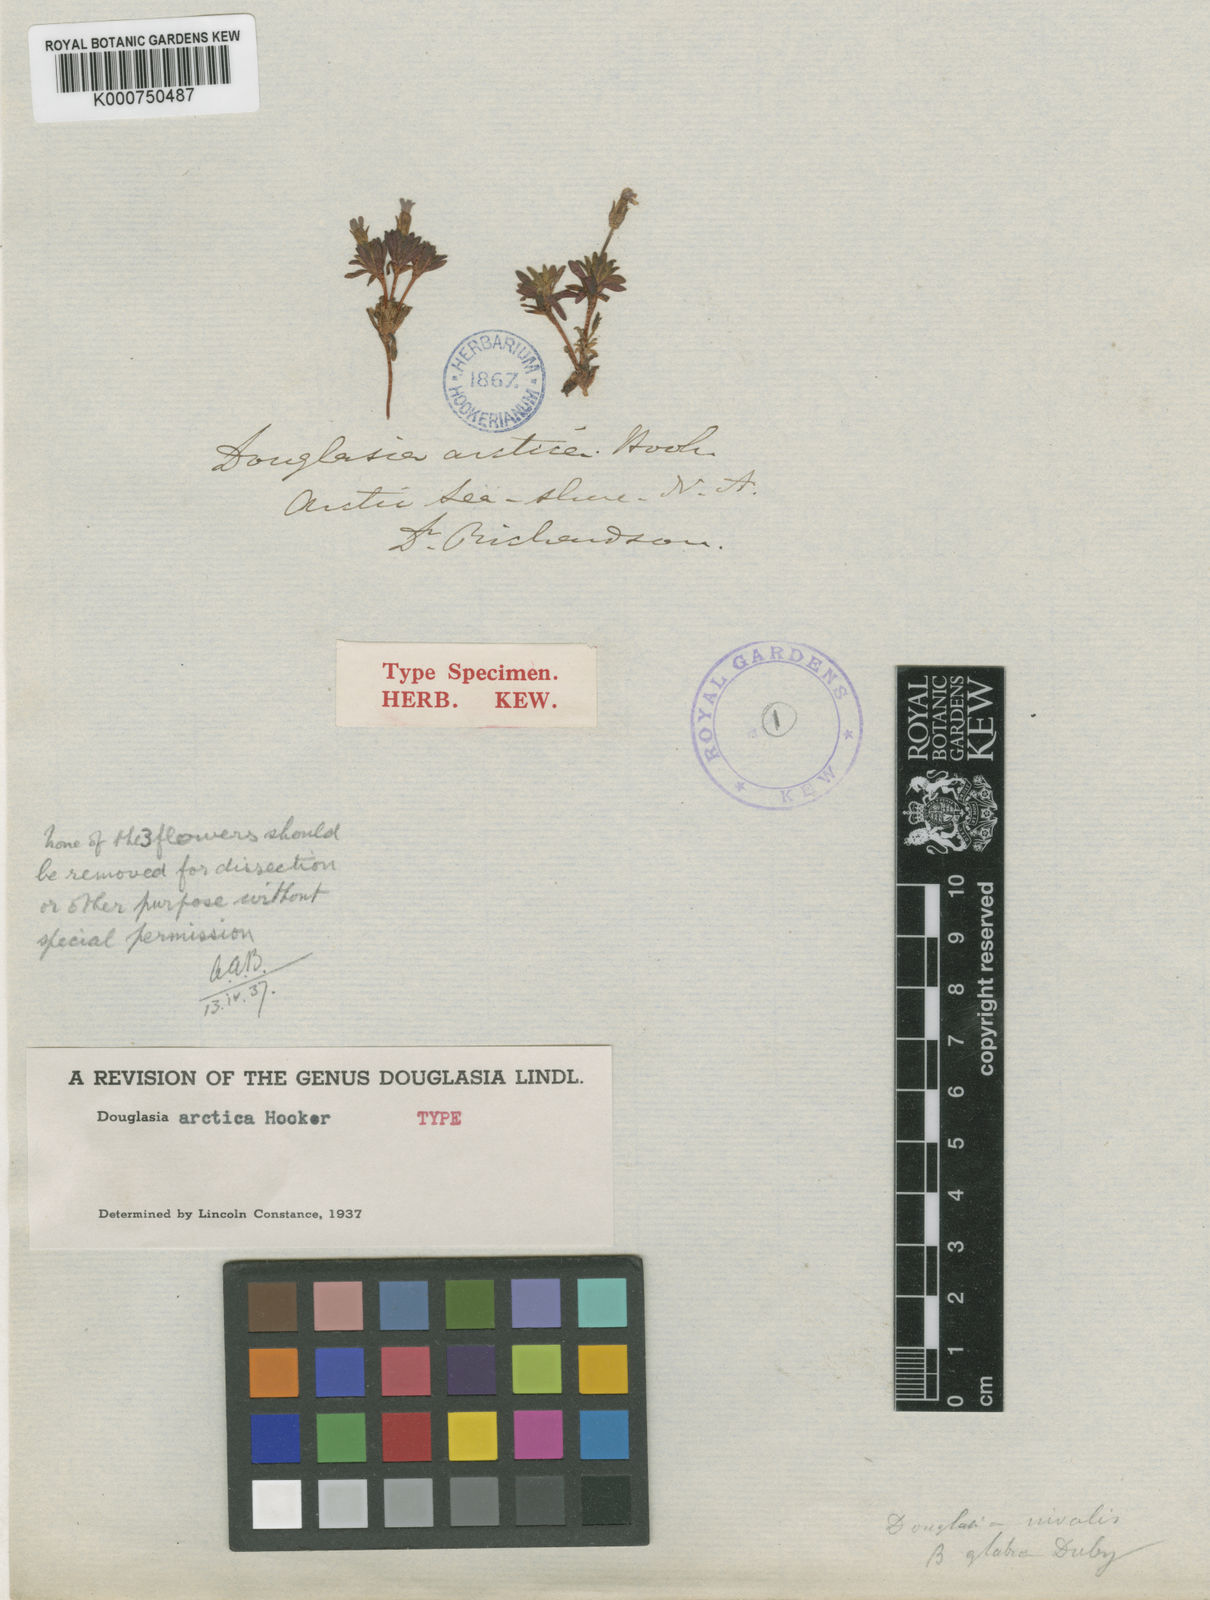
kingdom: Plantae
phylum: Tracheophyta
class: Magnoliopsida
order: Ericales
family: Primulaceae
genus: Androsace
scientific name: Androsace
